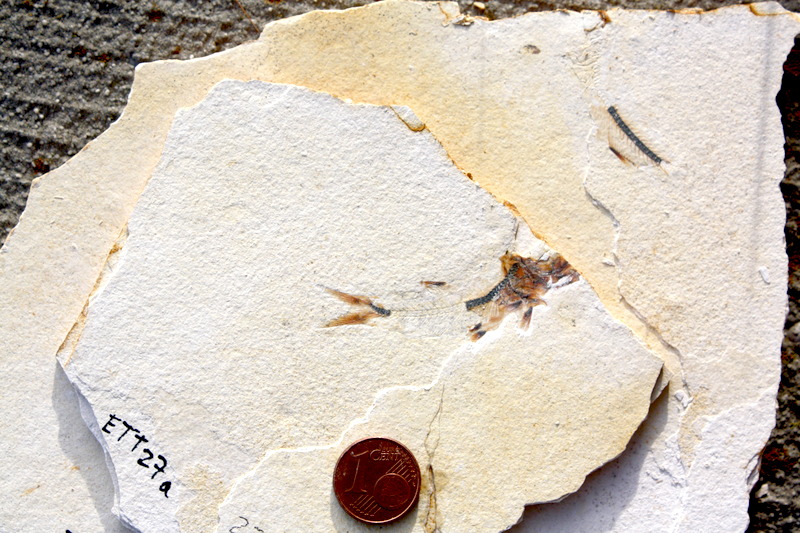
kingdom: Animalia
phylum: Chordata
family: Ascalaboidae
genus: Ebertichthys
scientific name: Ebertichthys ettlingensis
